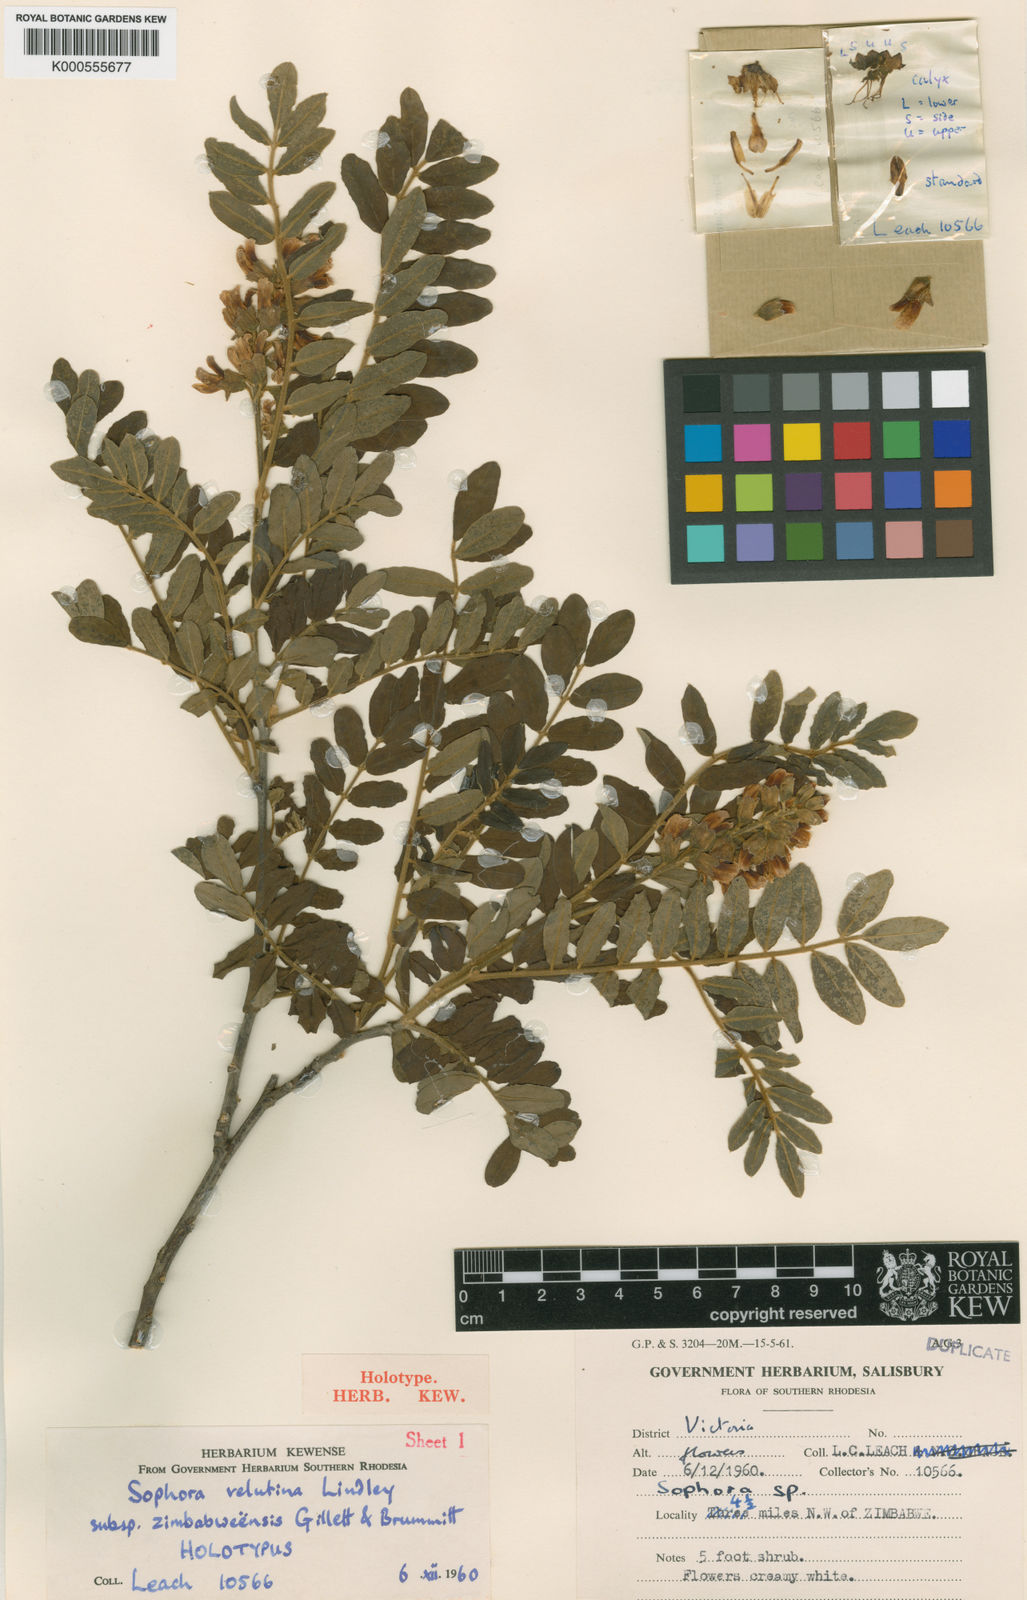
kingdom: Plantae
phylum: Tracheophyta
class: Magnoliopsida
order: Fabales
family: Fabaceae
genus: Sophora
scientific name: Sophora velutina
